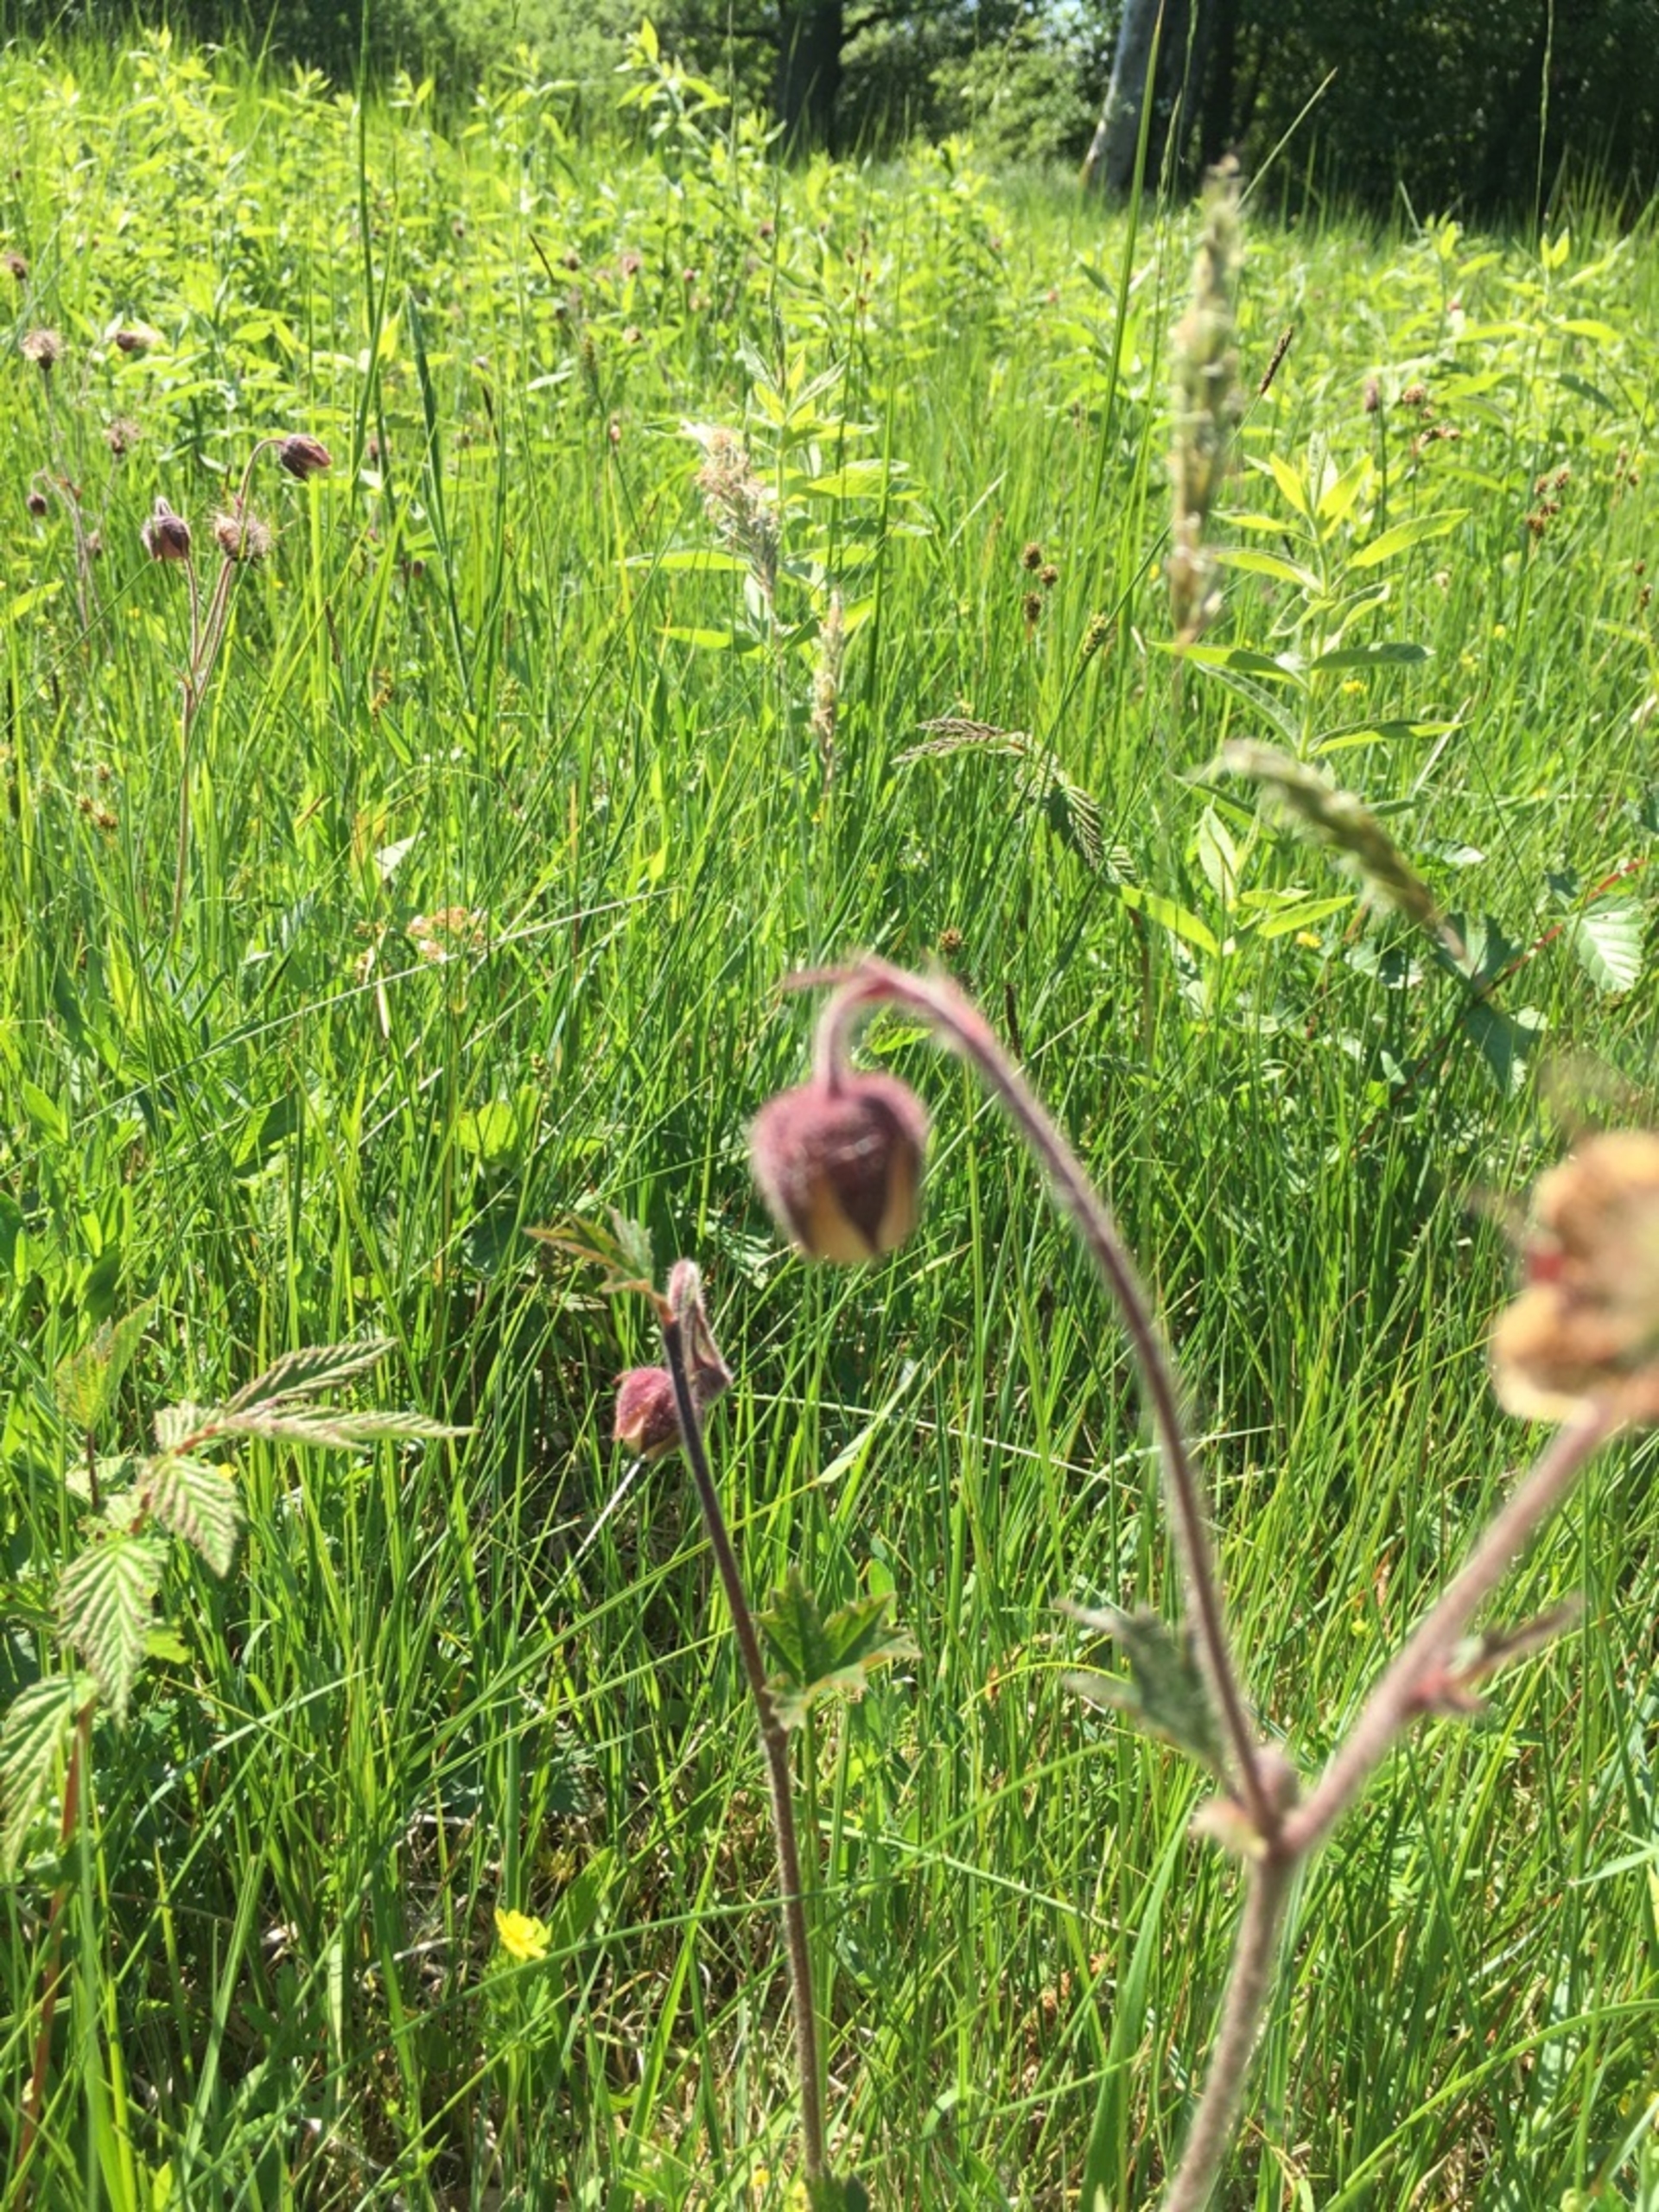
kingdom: Plantae
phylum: Tracheophyta
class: Magnoliopsida
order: Rosales
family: Rosaceae
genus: Geum
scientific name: Geum rivale
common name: Eng-nellikerod
